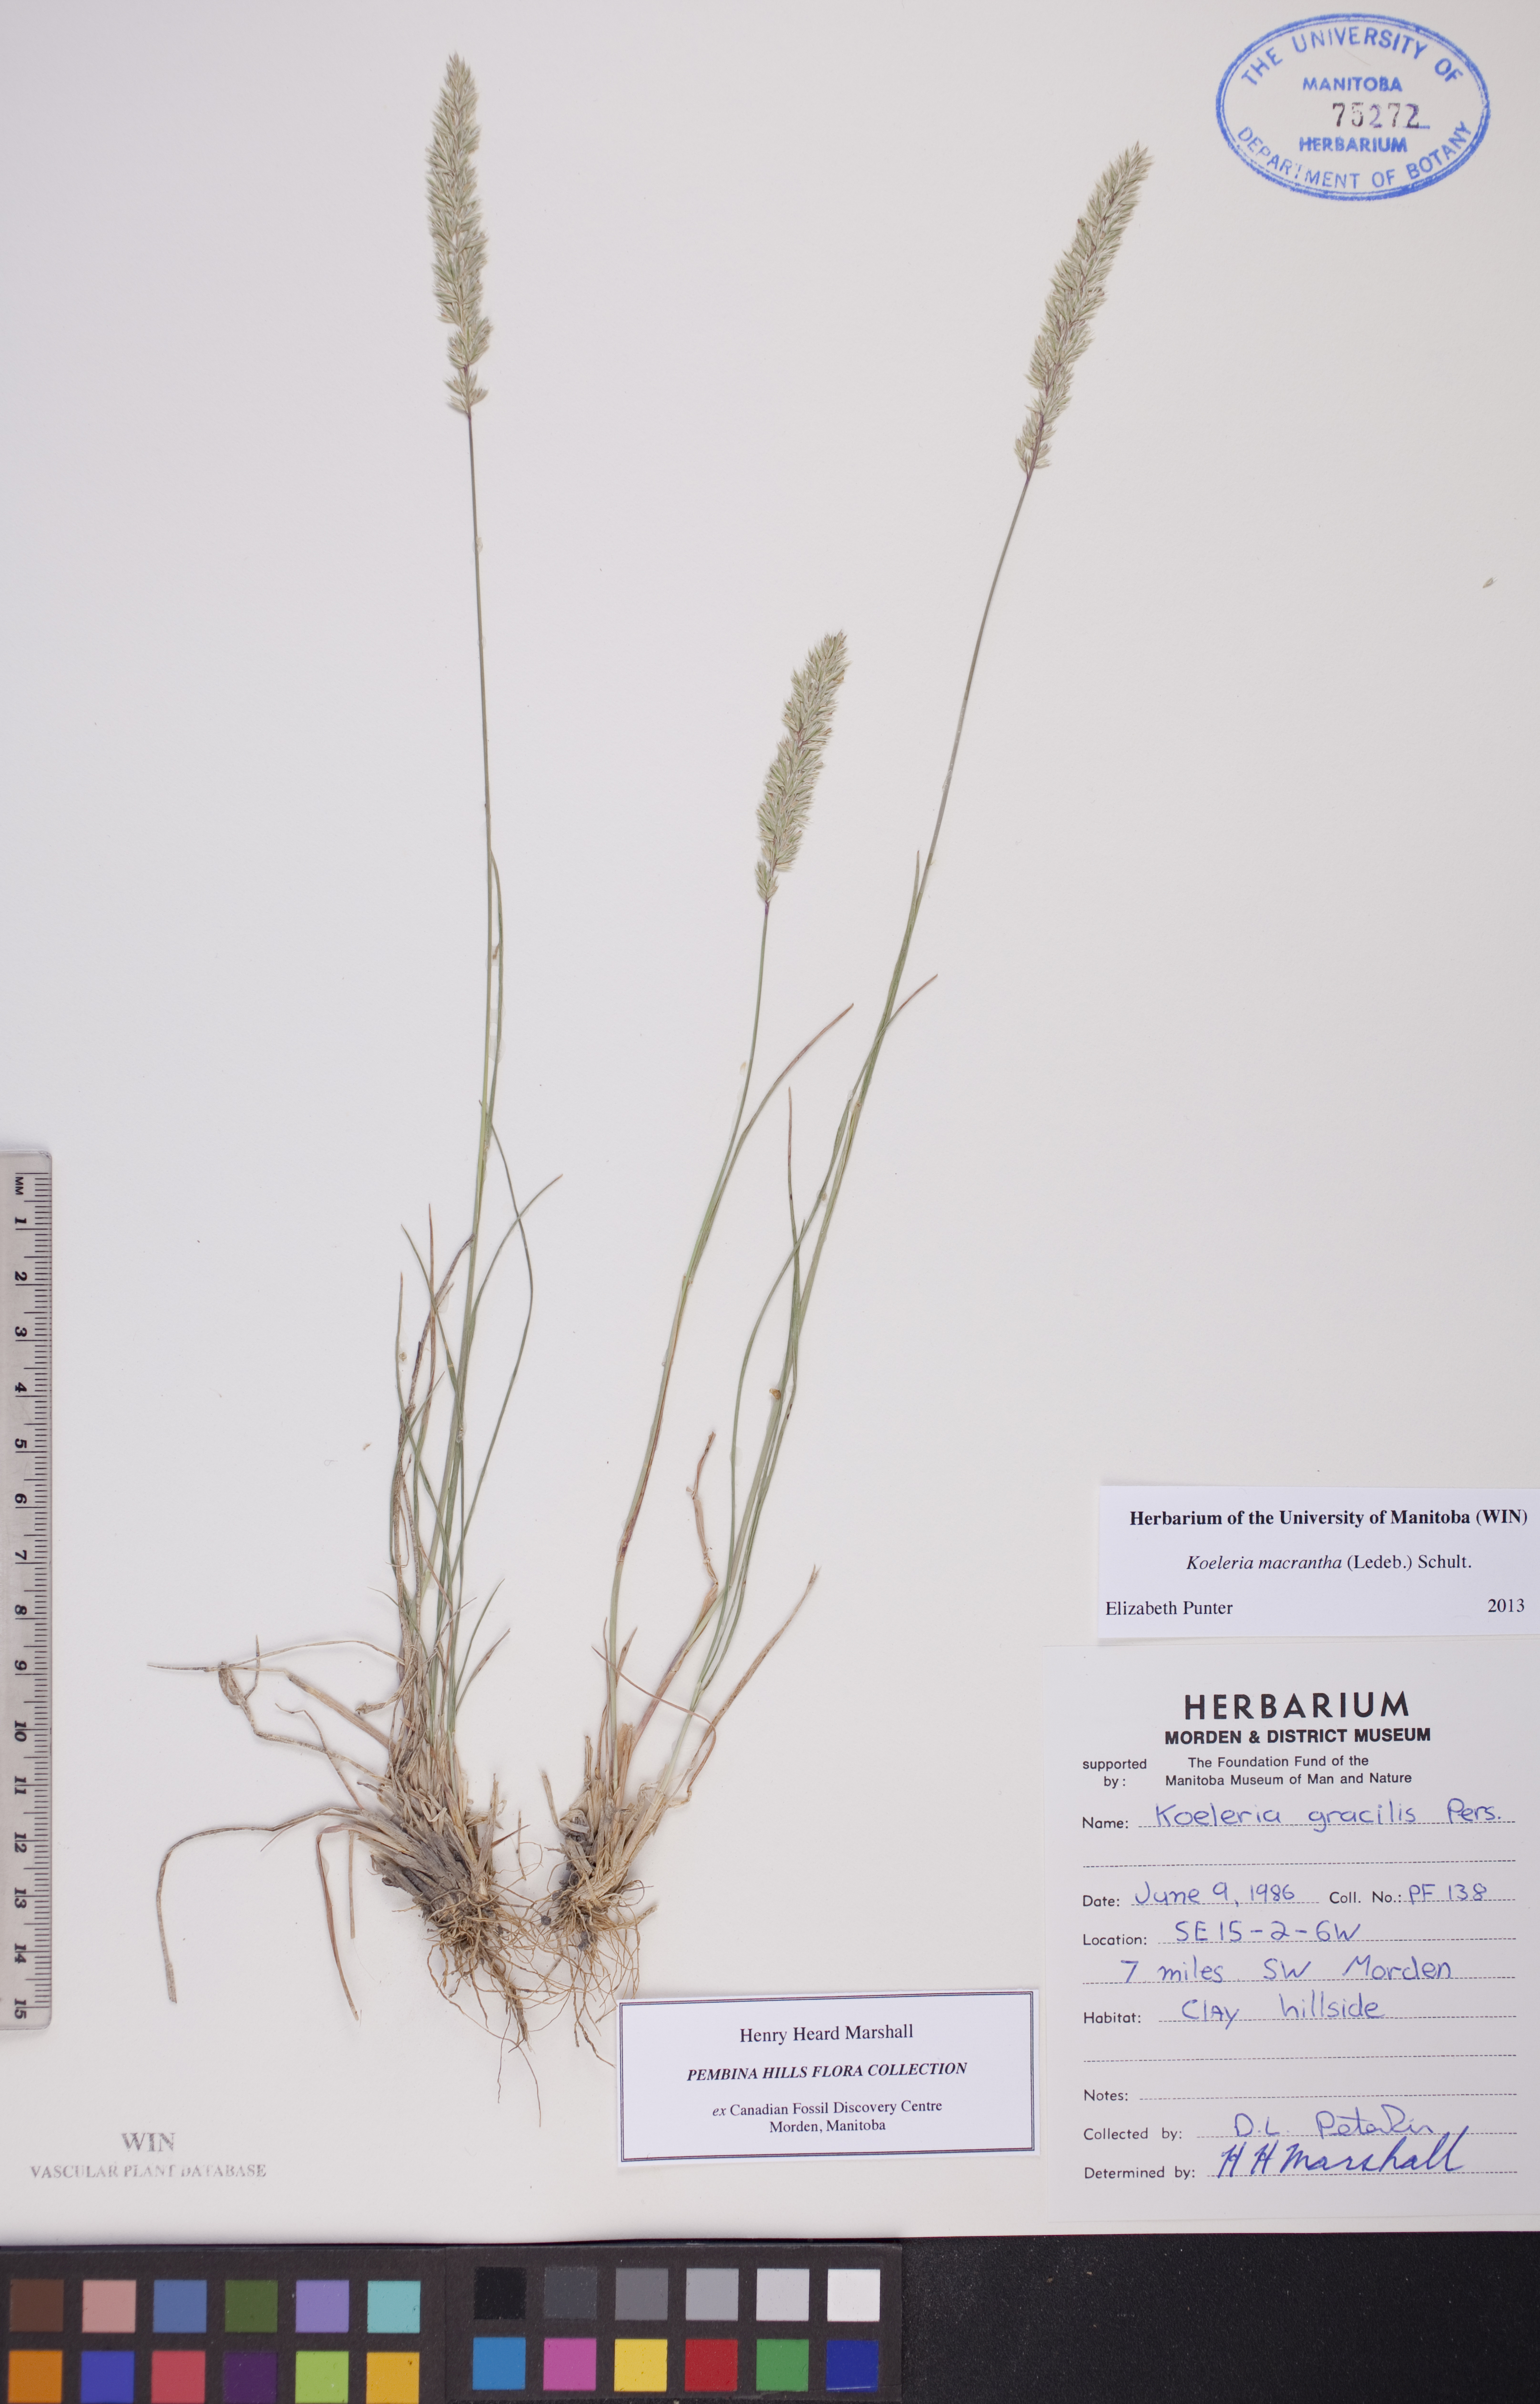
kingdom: Plantae
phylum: Tracheophyta
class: Liliopsida
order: Poales
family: Poaceae
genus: Koeleria
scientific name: Koeleria macrantha
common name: Crested hair-grass
